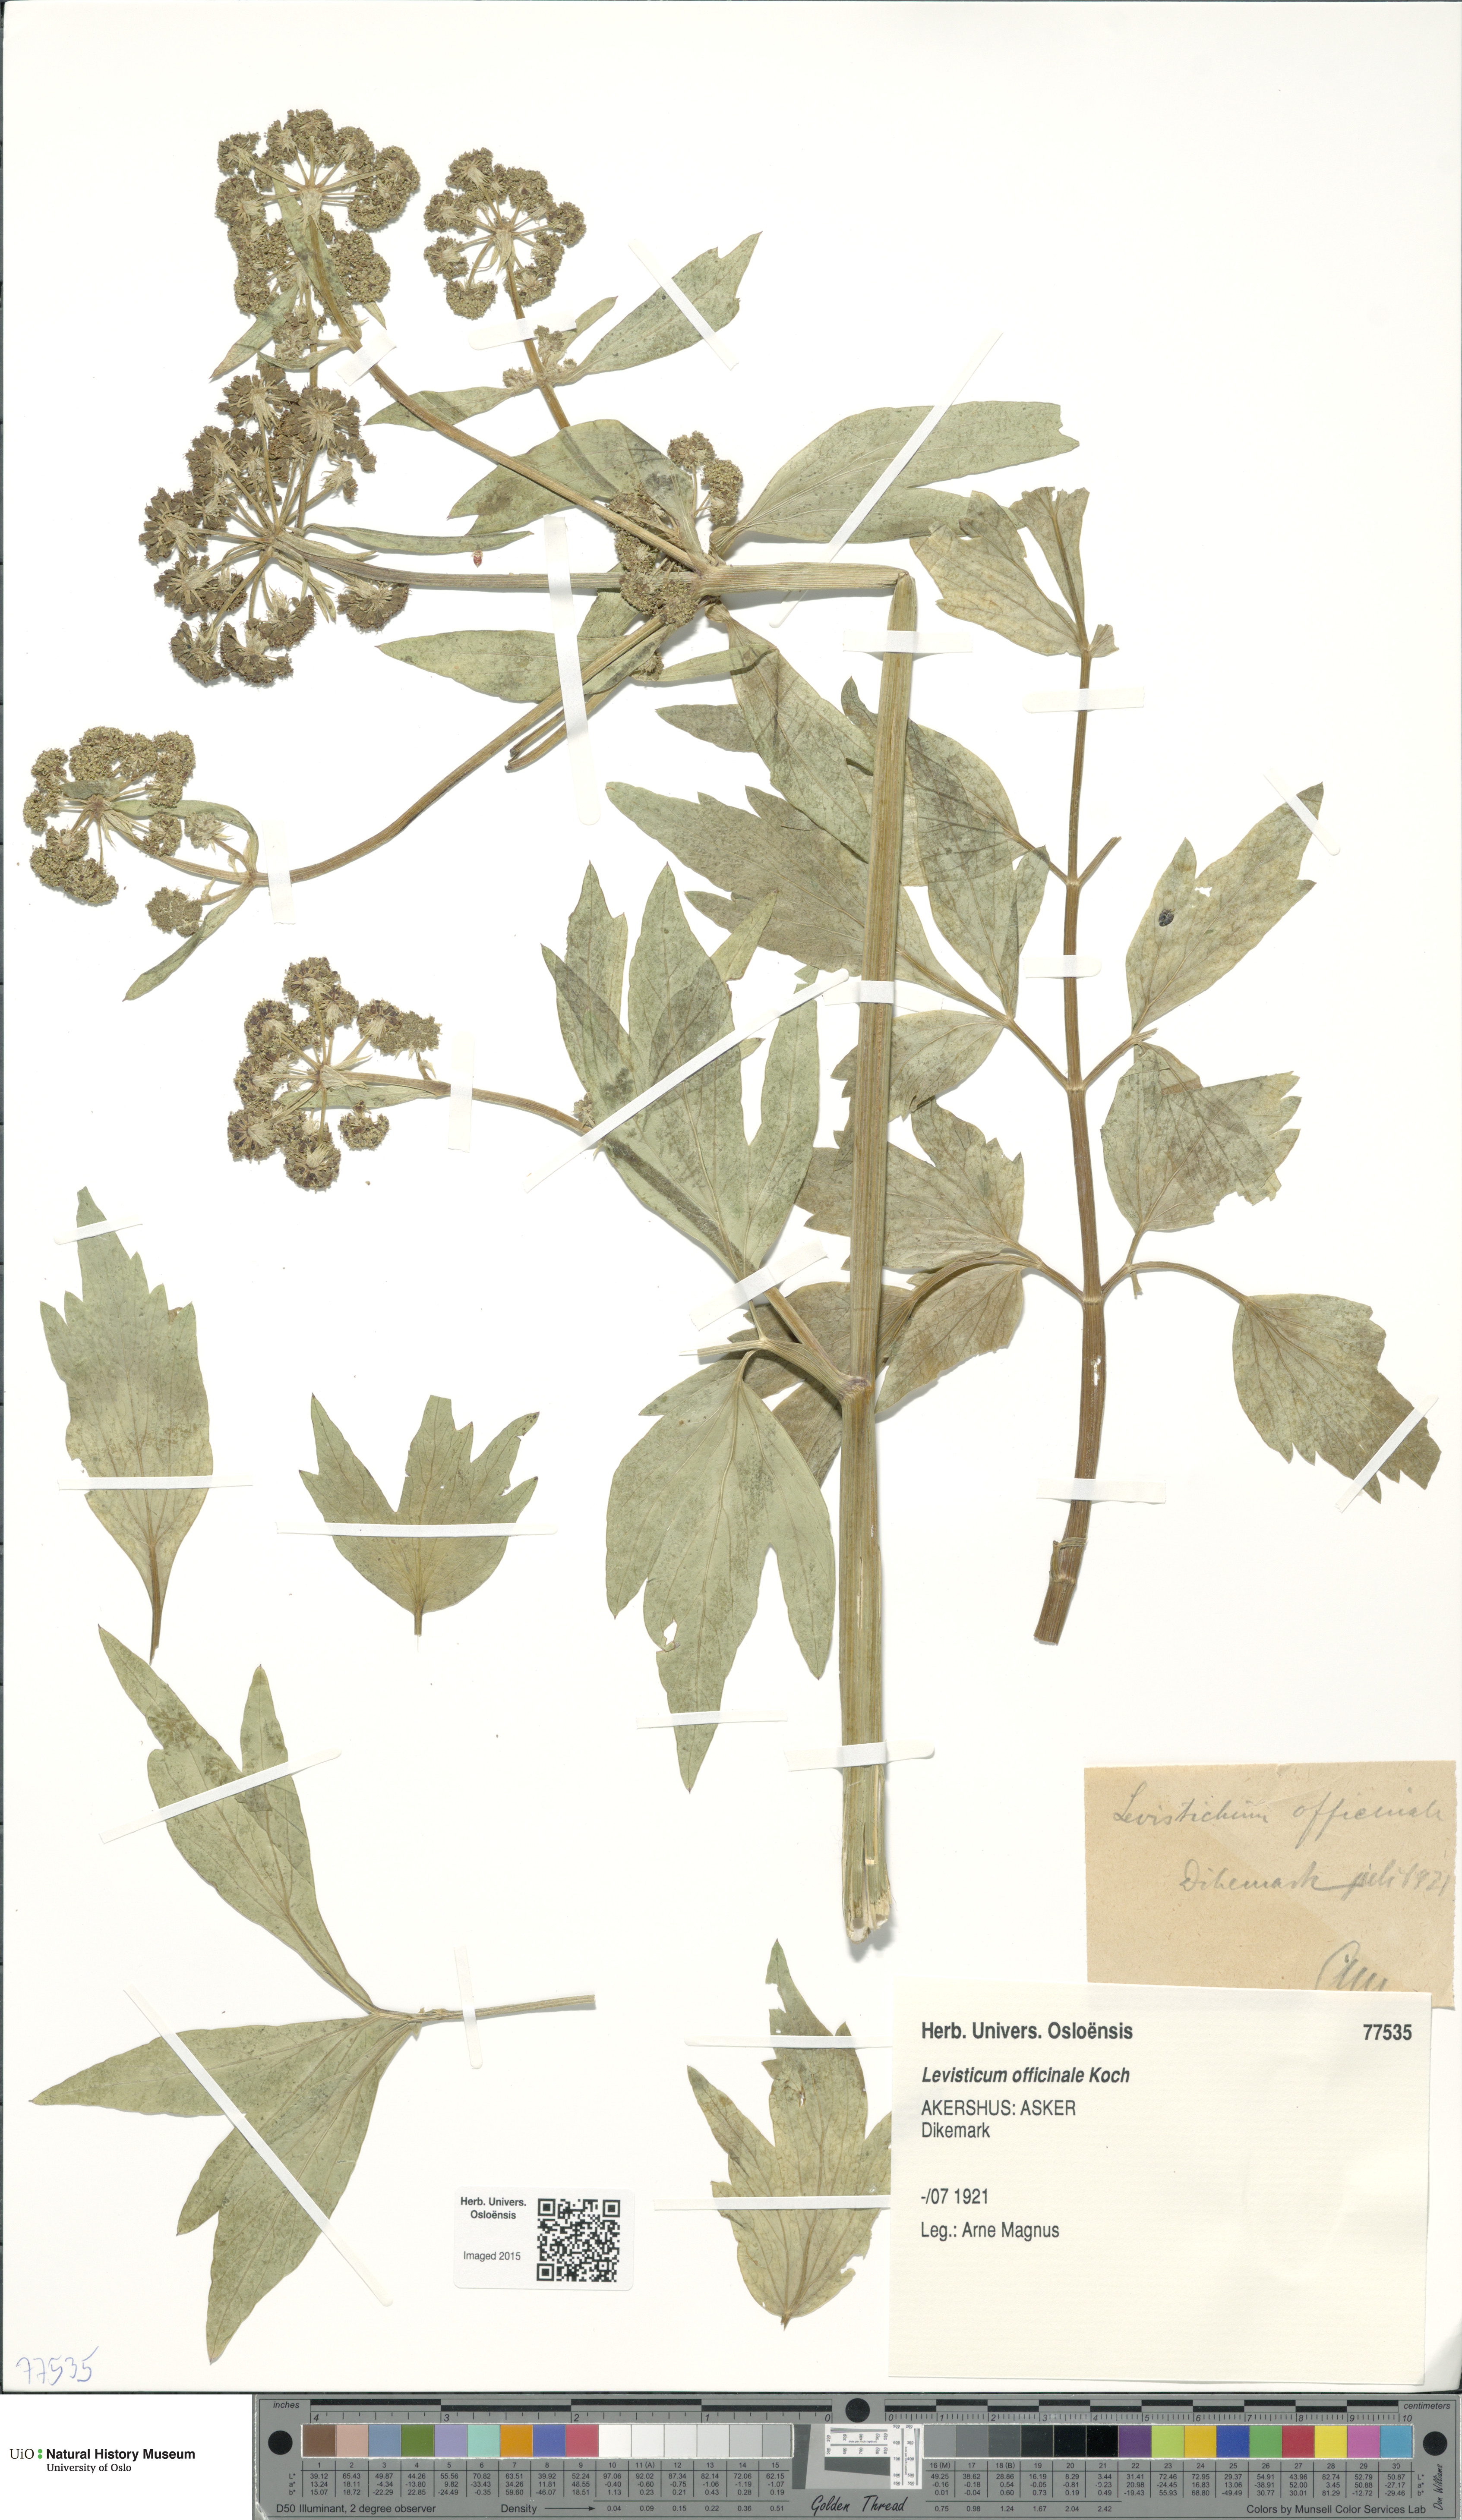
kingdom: Plantae
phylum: Tracheophyta
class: Magnoliopsida
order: Apiales
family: Apiaceae
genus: Levisticum
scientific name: Levisticum officinale
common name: Lovage
